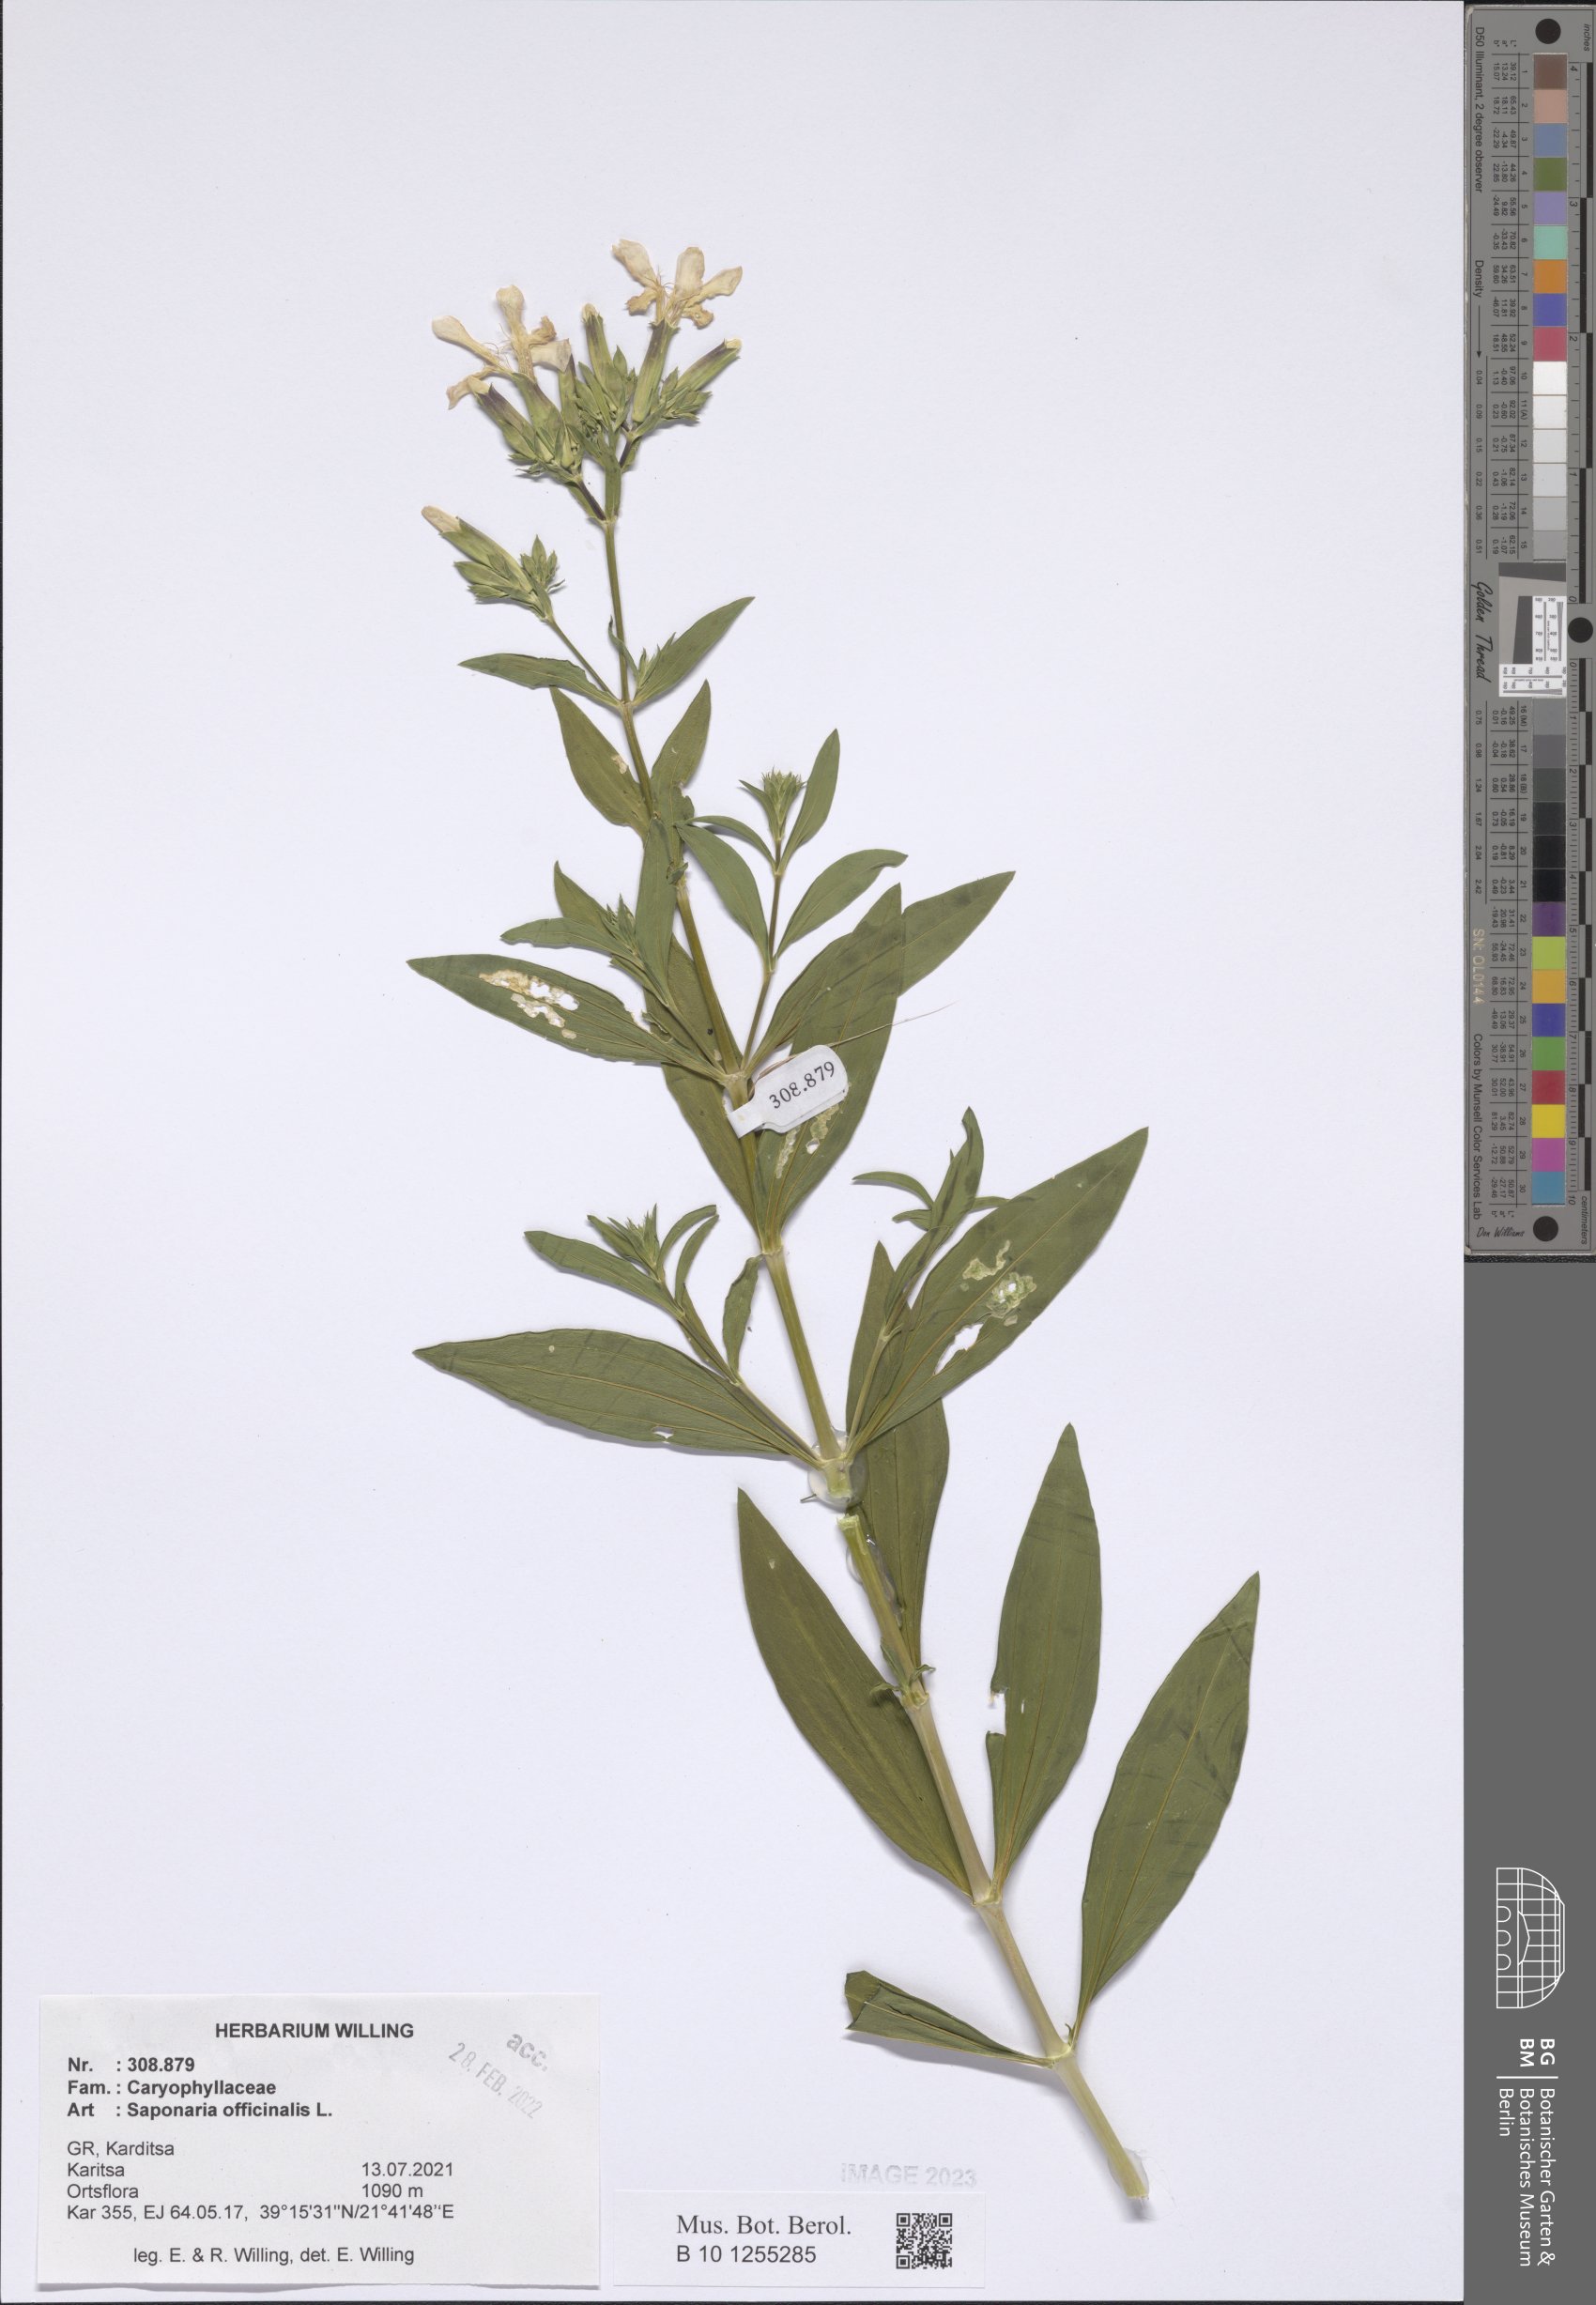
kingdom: Plantae
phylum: Tracheophyta
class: Magnoliopsida
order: Caryophyllales
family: Caryophyllaceae
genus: Saponaria
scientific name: Saponaria officinalis
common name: Soapwort
